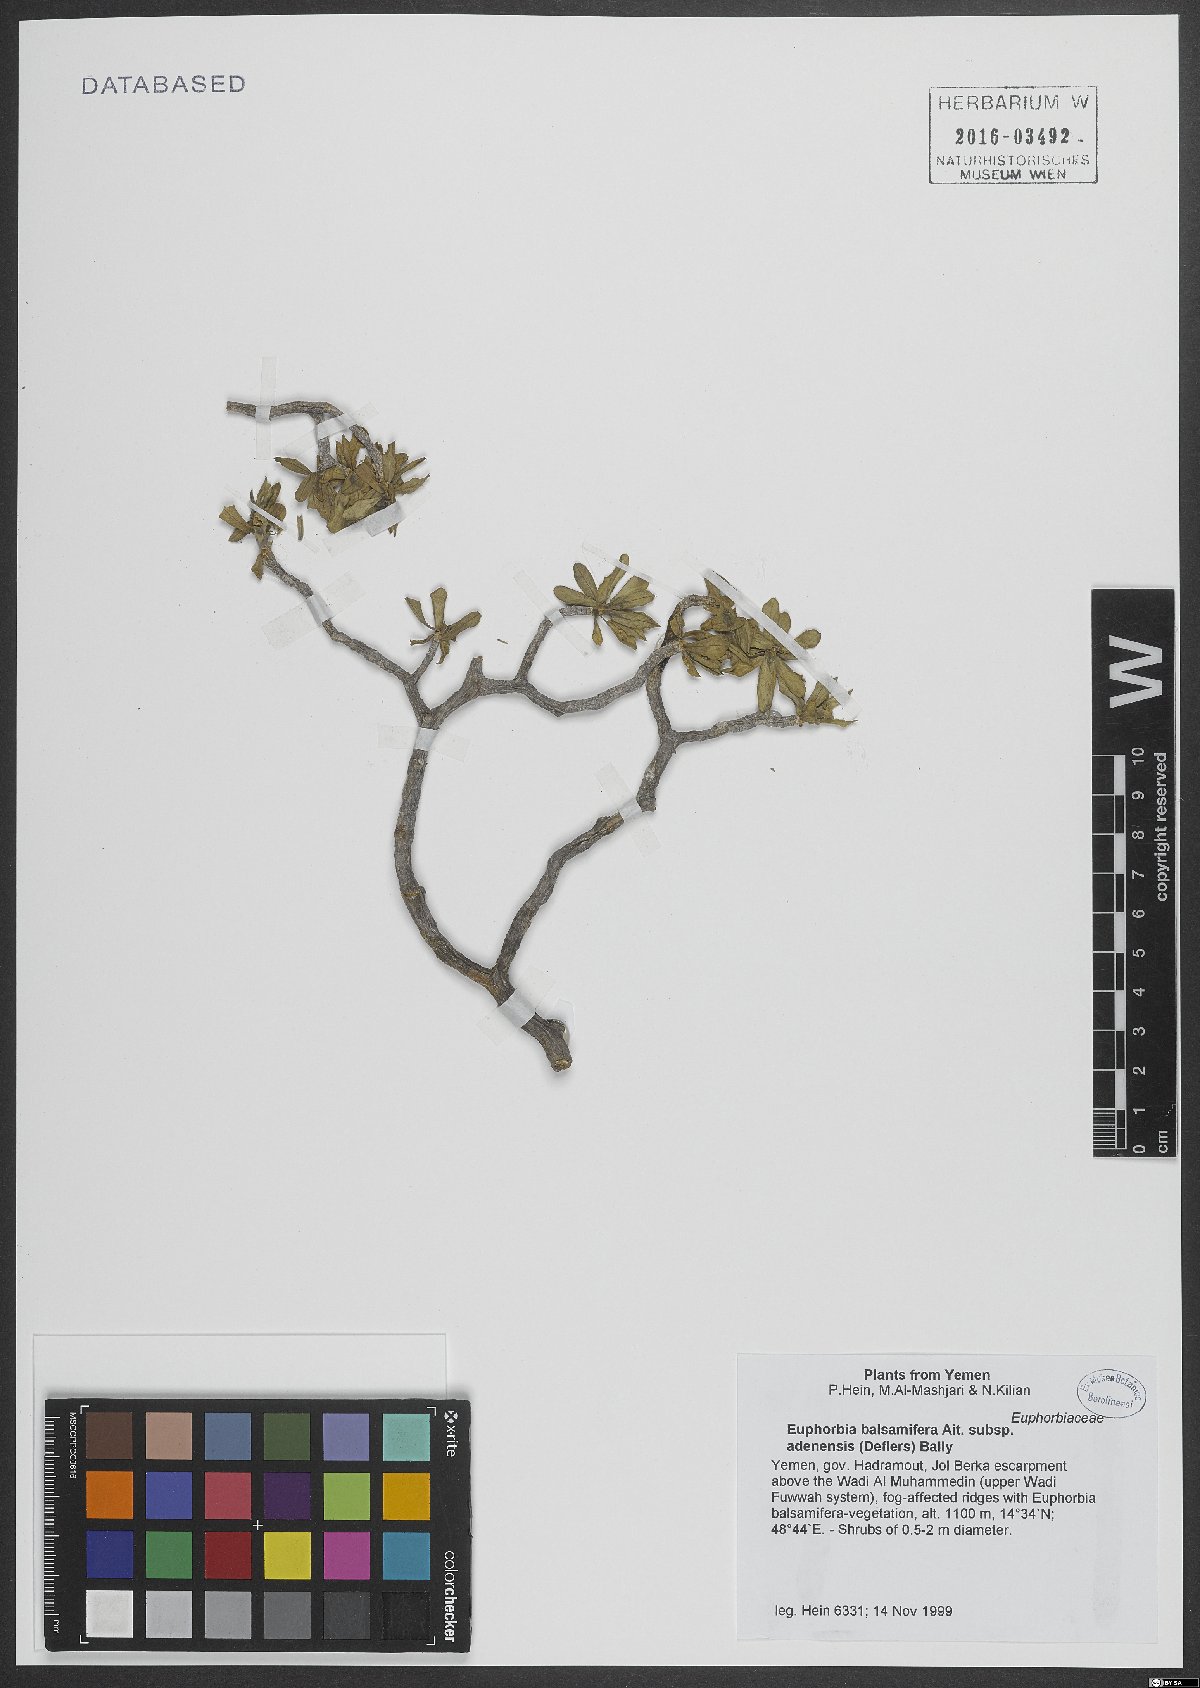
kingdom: Plantae
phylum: Tracheophyta
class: Magnoliopsida
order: Malpighiales
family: Euphorbiaceae
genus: Euphorbia
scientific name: Euphorbia adenensis
